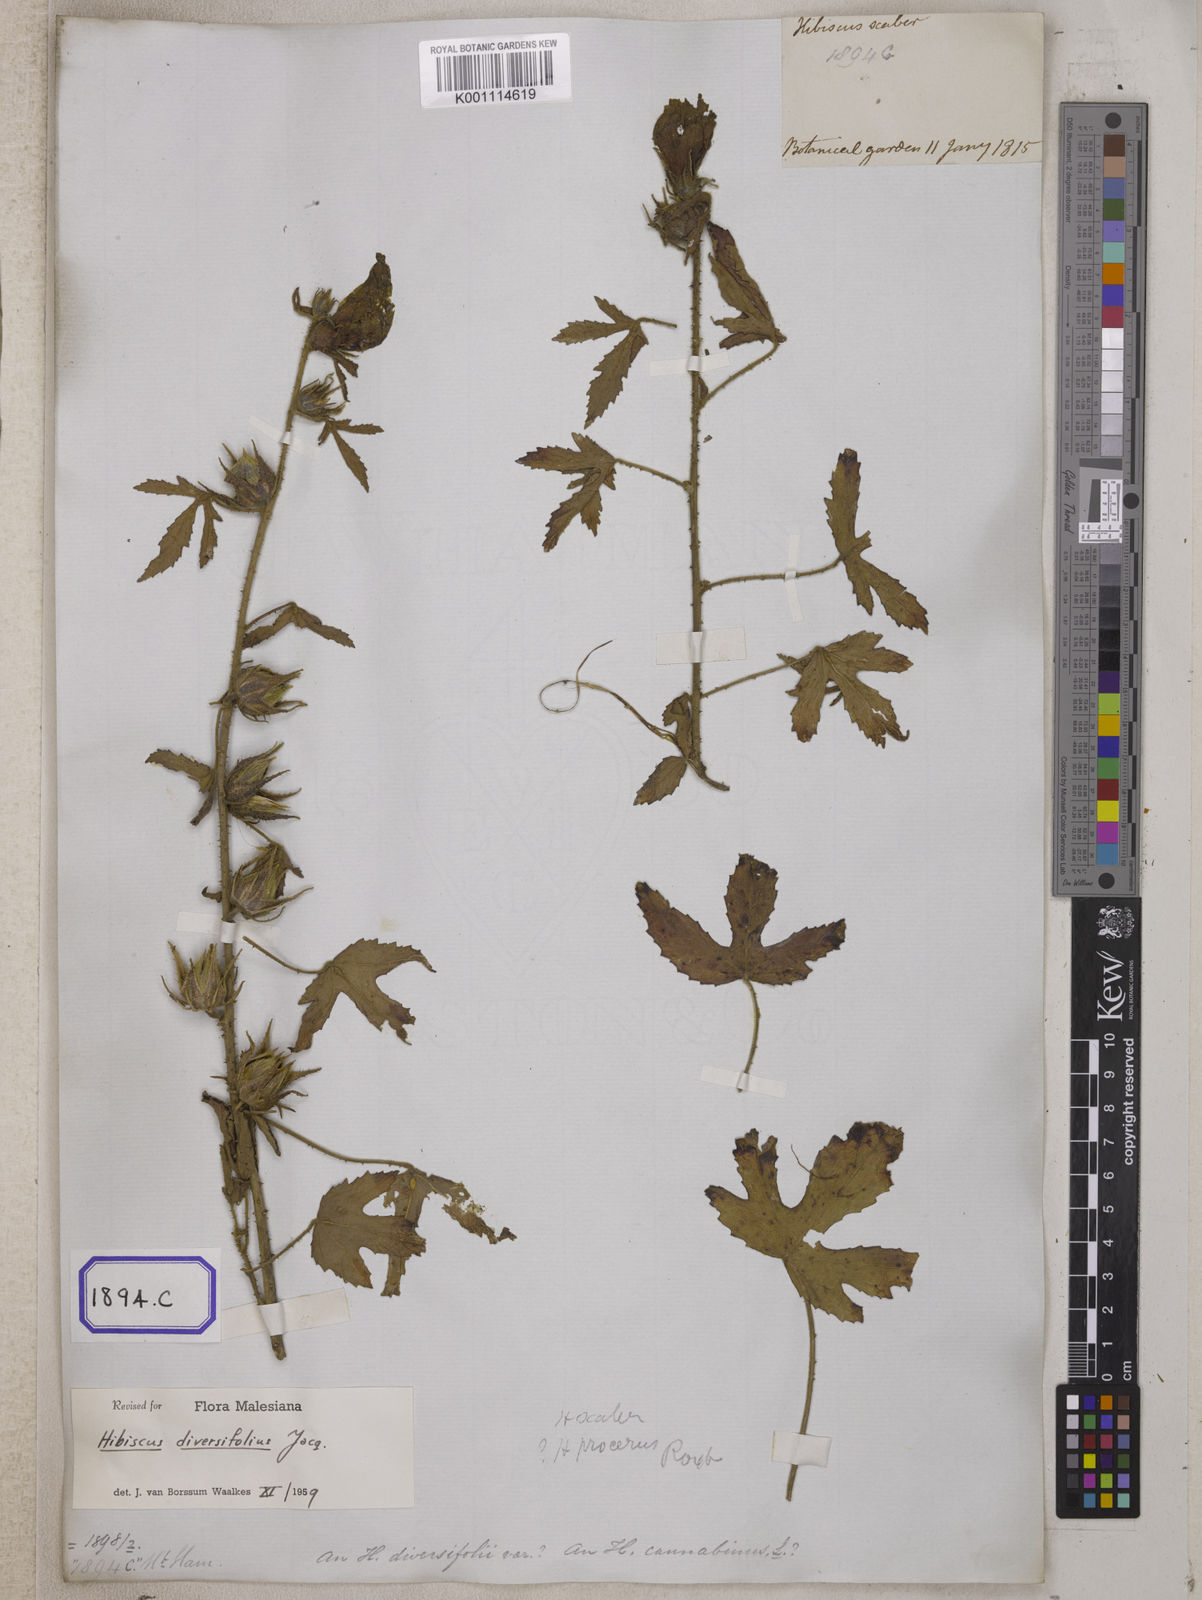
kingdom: Plantae
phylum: Tracheophyta
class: Magnoliopsida
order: Malvales
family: Malvaceae
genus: Hibiscus
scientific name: Hibiscus radiatus
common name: Monarch rosemallow
